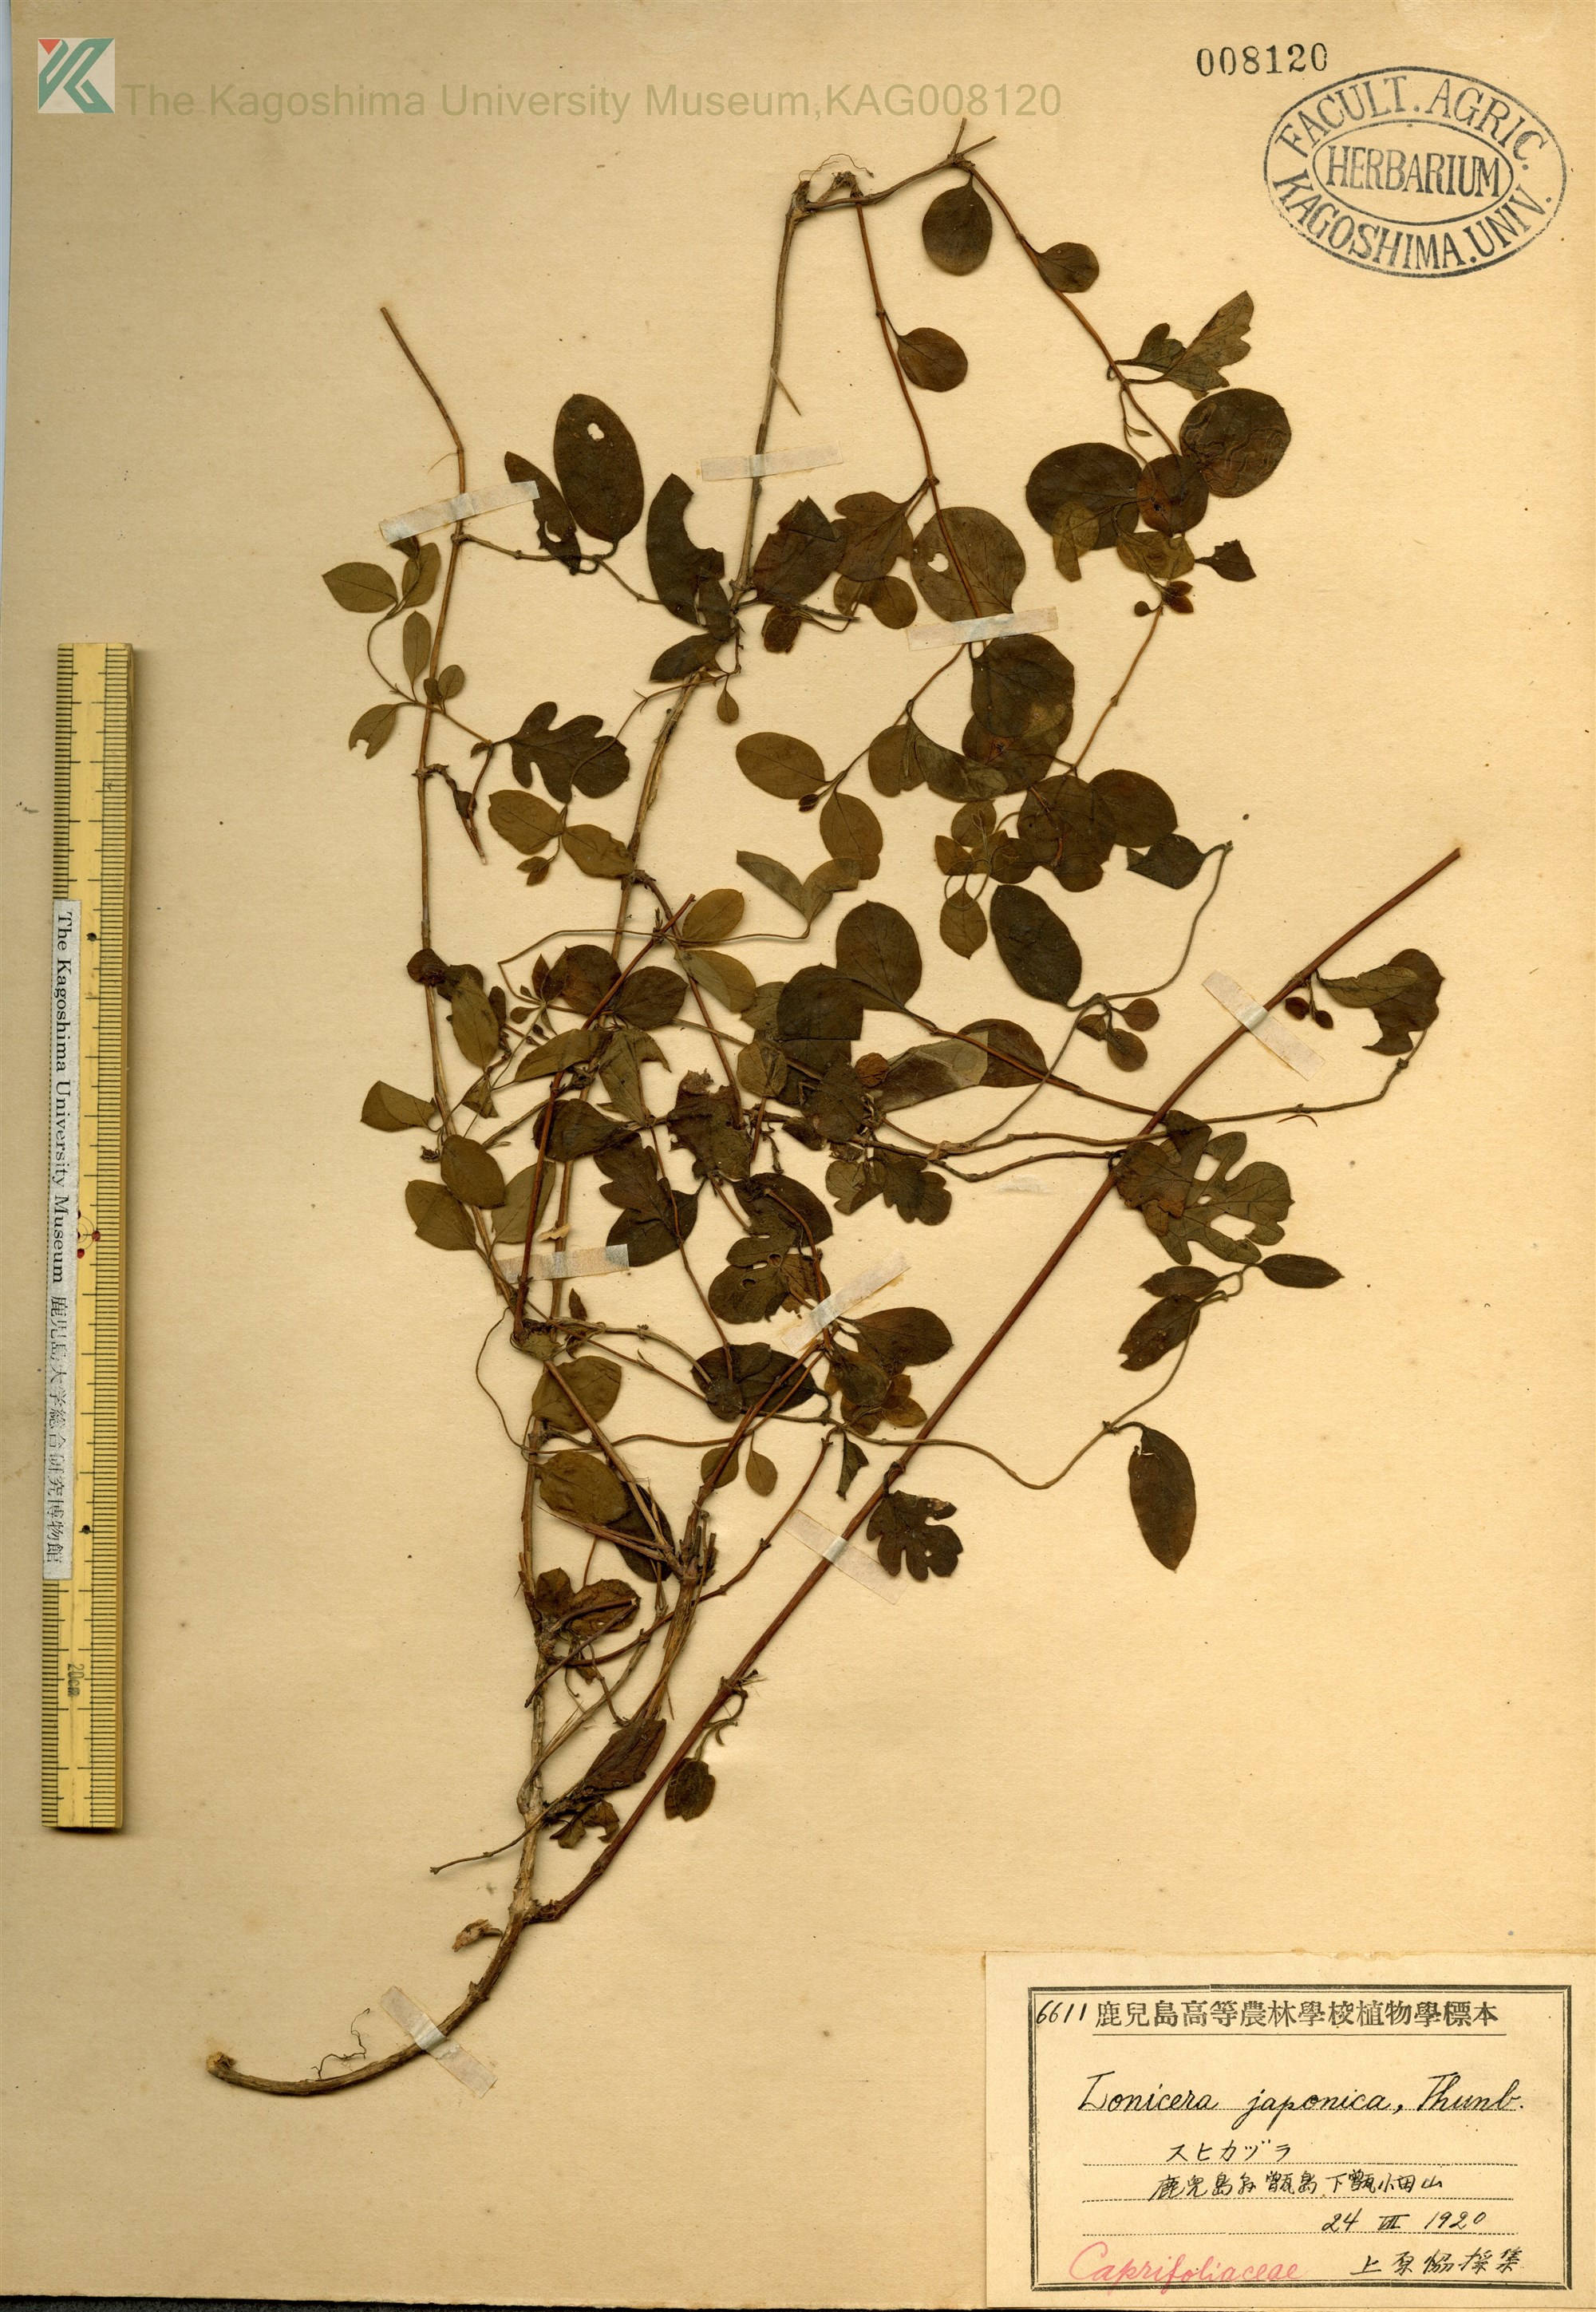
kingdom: Plantae
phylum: Tracheophyta
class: Magnoliopsida
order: Dipsacales
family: Caprifoliaceae
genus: Lonicera
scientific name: Lonicera japonica
